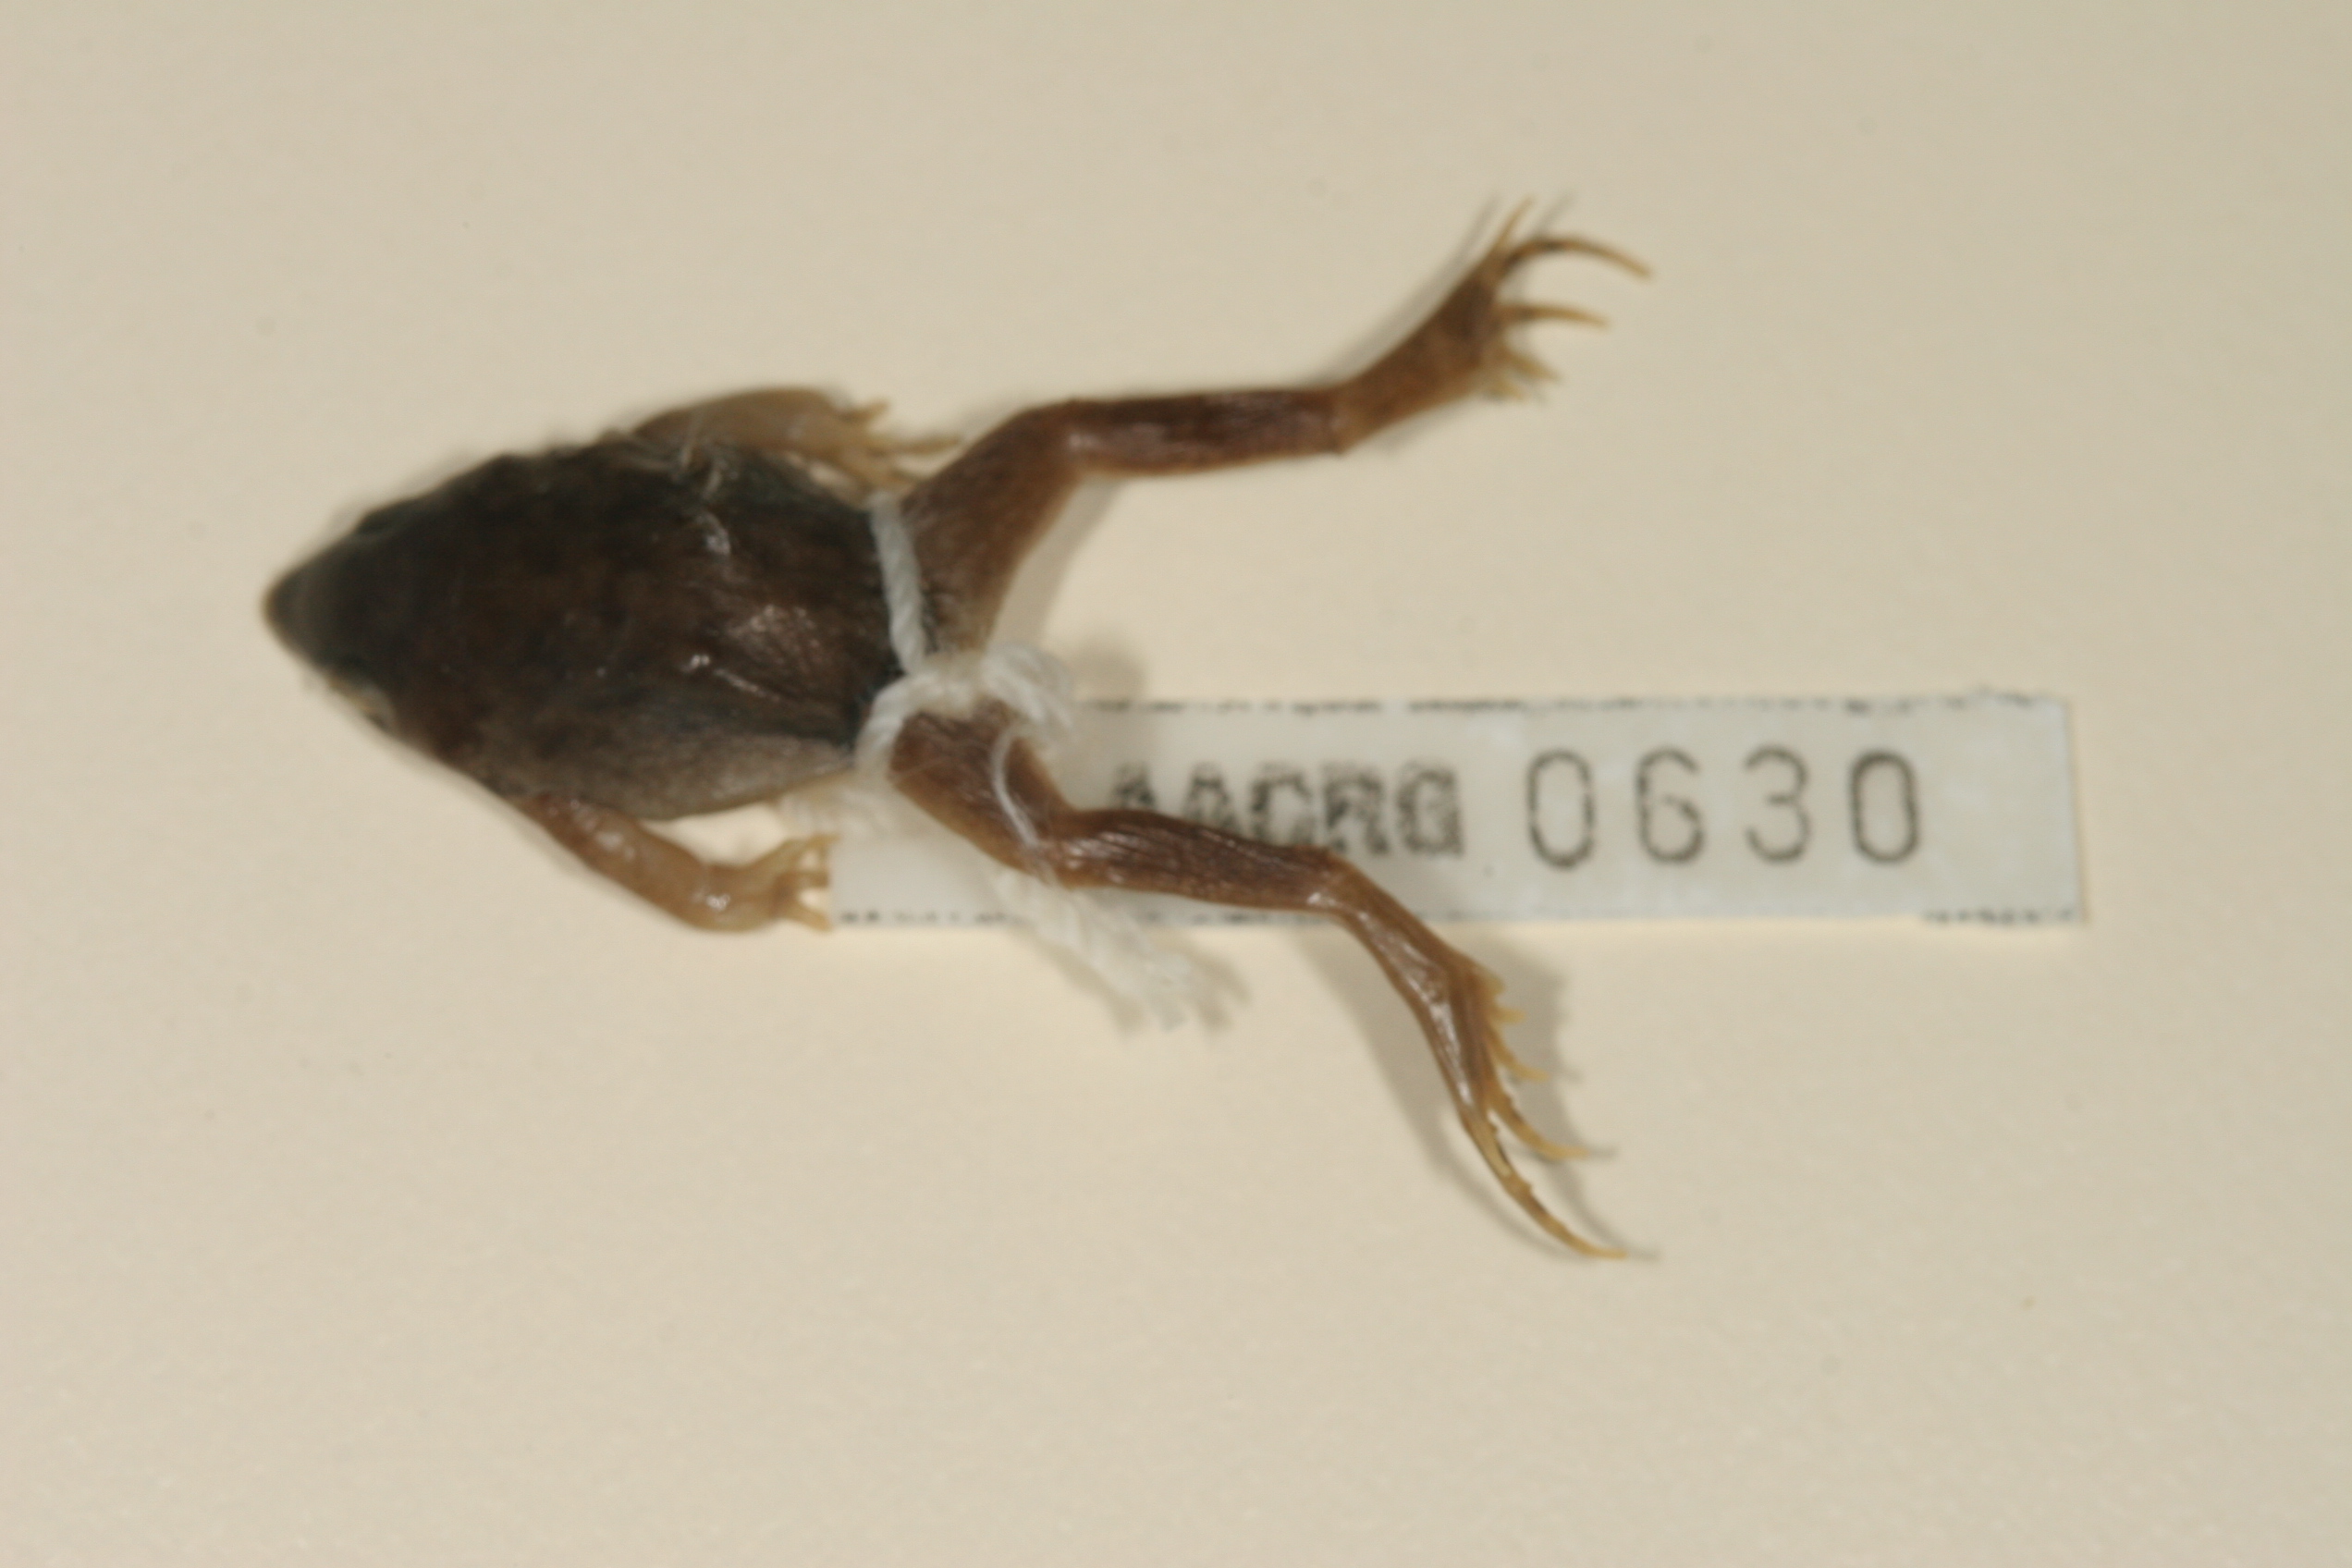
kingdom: Animalia
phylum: Chordata
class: Amphibia
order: Anura
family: Hemisotidae
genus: Hemisus
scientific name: Hemisus marmoratus
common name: Mottled shovel-nosed frog
